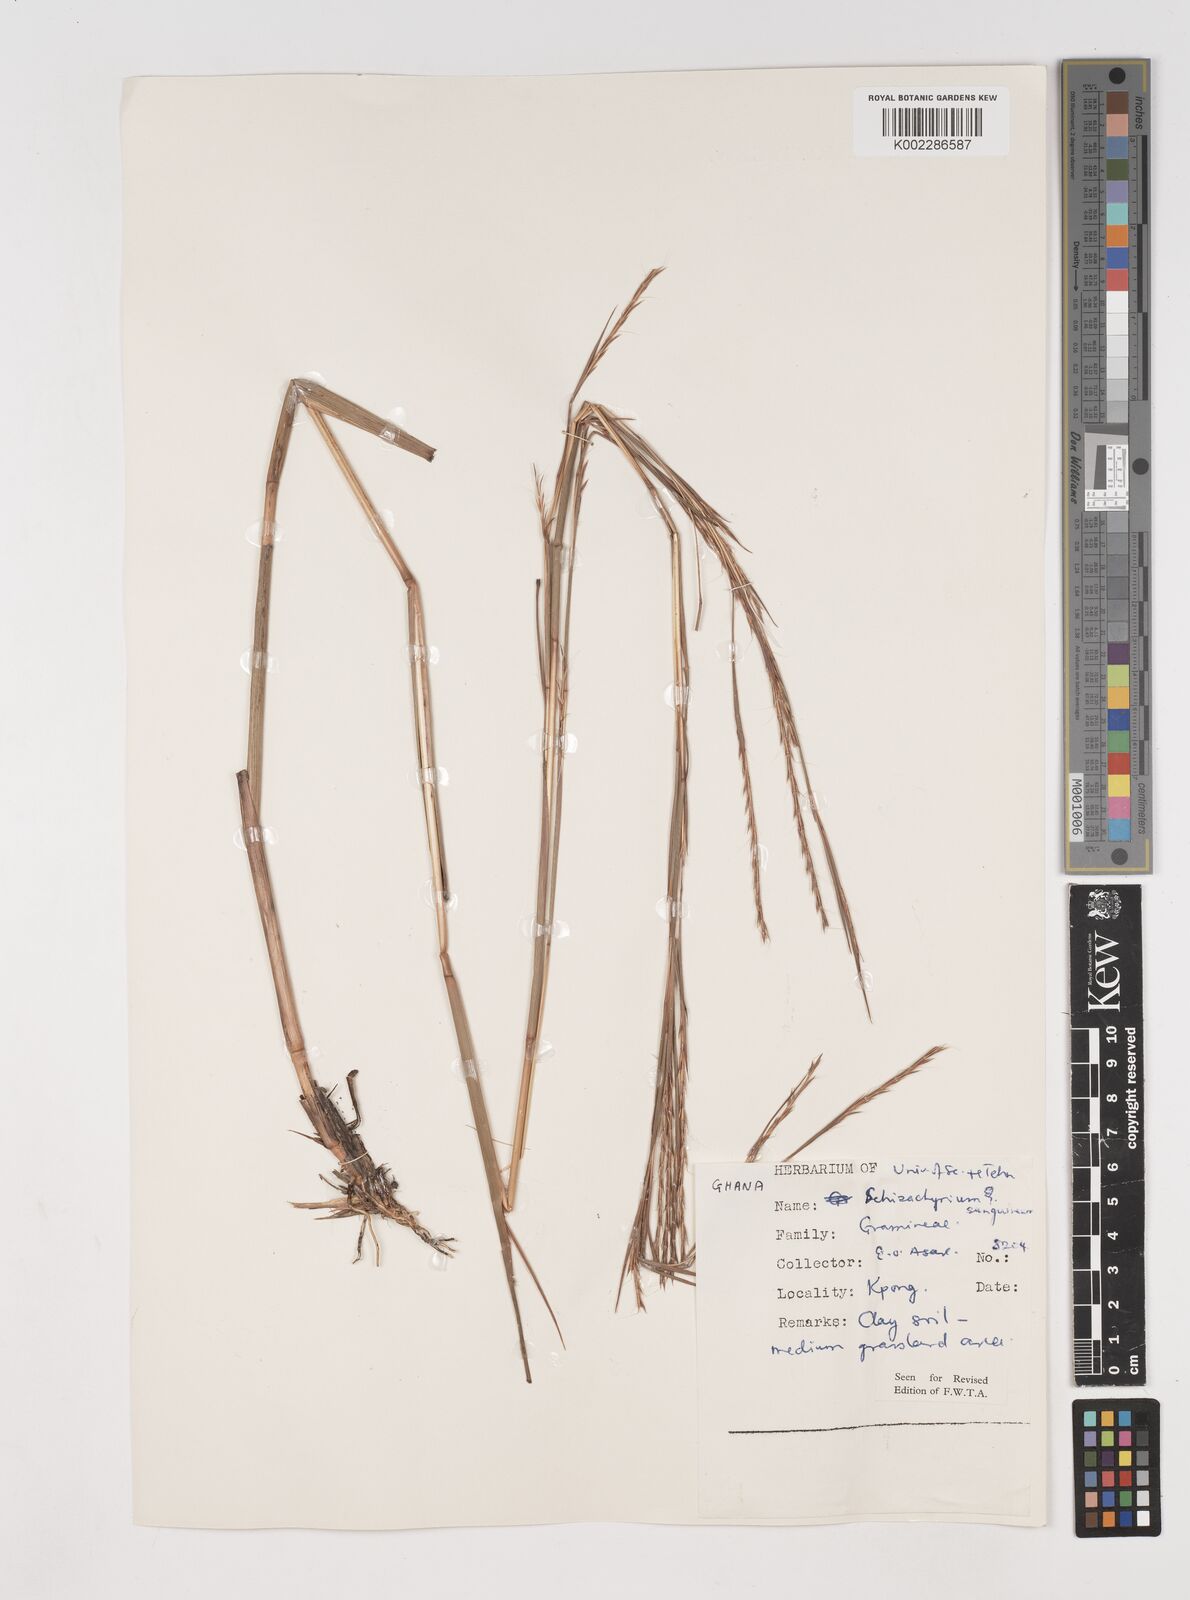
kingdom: Plantae
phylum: Tracheophyta
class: Liliopsida
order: Poales
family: Poaceae
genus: Schizachyrium
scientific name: Schizachyrium sanguineum
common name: Crimson bluestem
